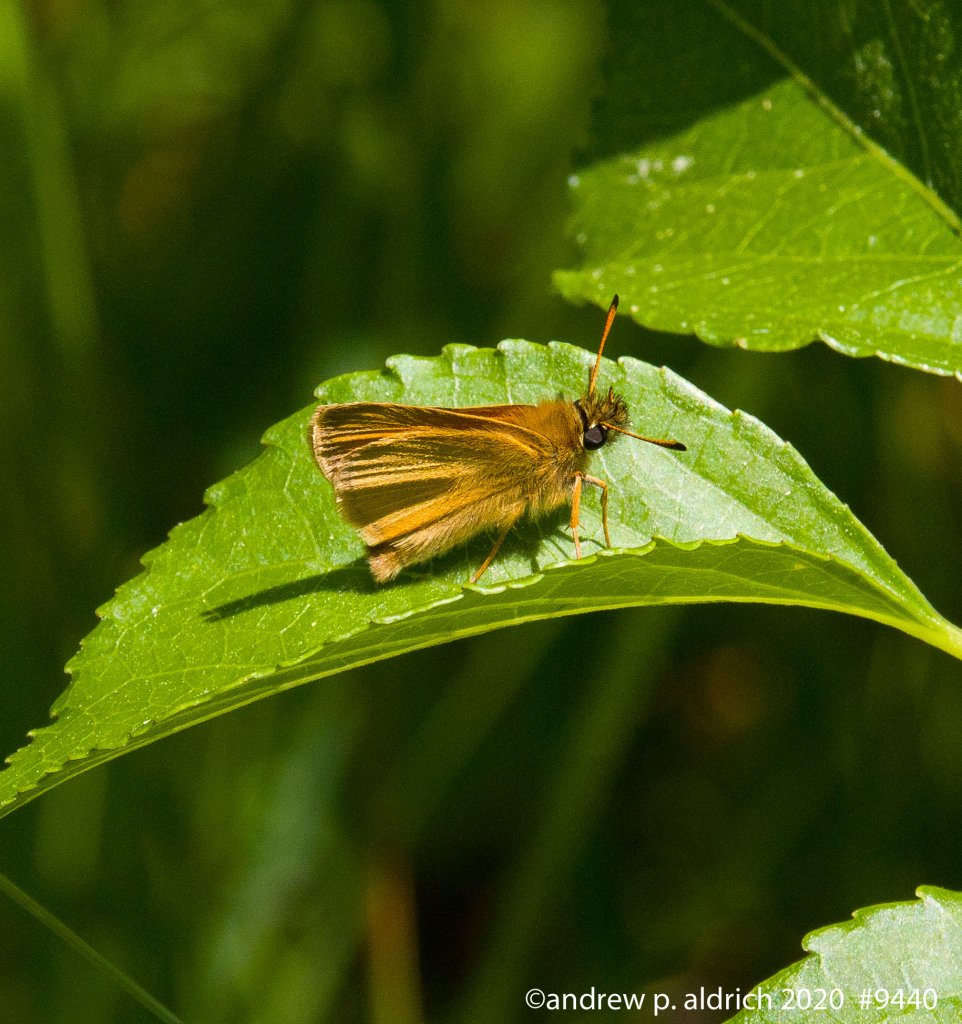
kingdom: Animalia
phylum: Arthropoda
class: Insecta
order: Lepidoptera
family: Hesperiidae
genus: Ancyloxypha
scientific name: Ancyloxypha numitor
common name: Least Skipper
